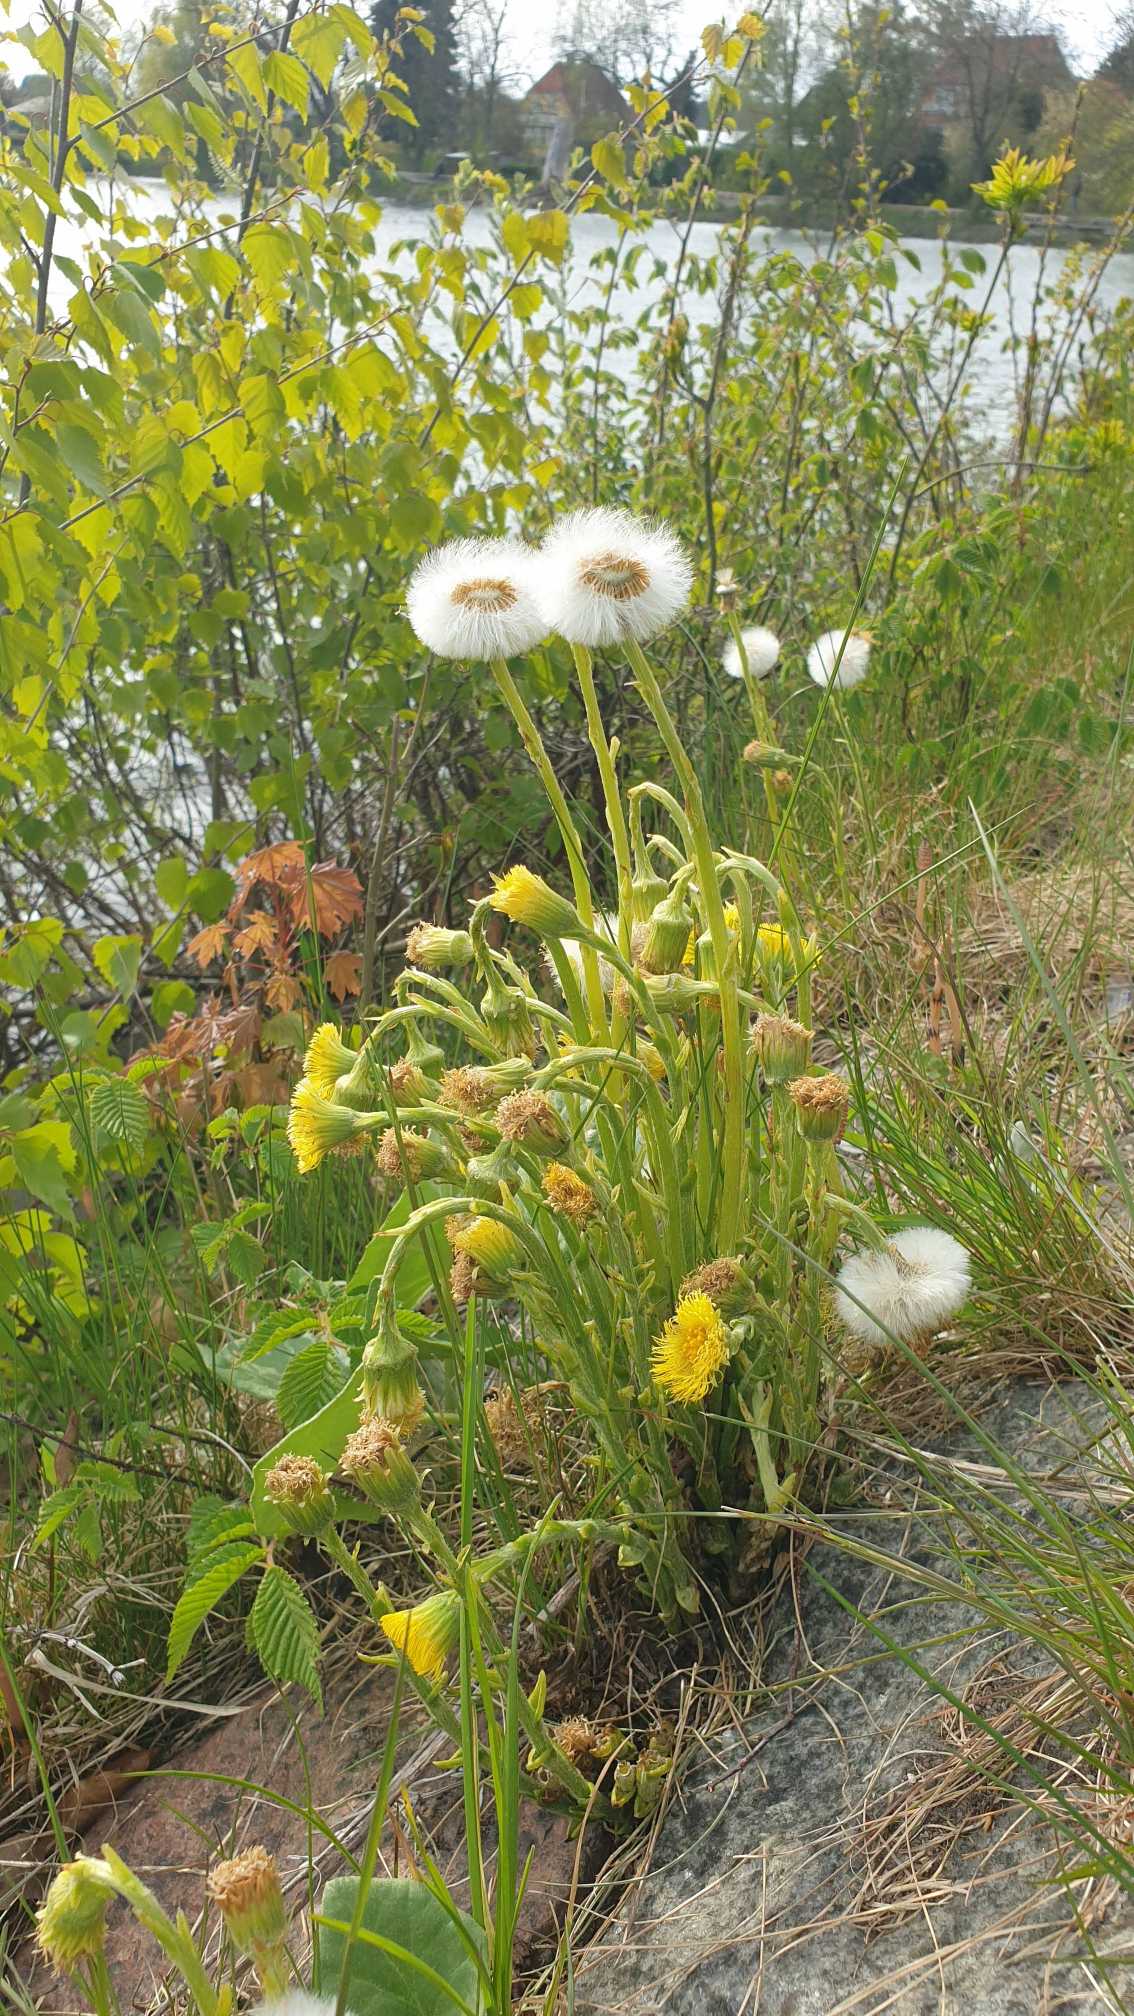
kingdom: Plantae
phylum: Tracheophyta
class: Magnoliopsida
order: Asterales
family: Asteraceae
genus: Tussilago
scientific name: Tussilago farfara
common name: Følfod
